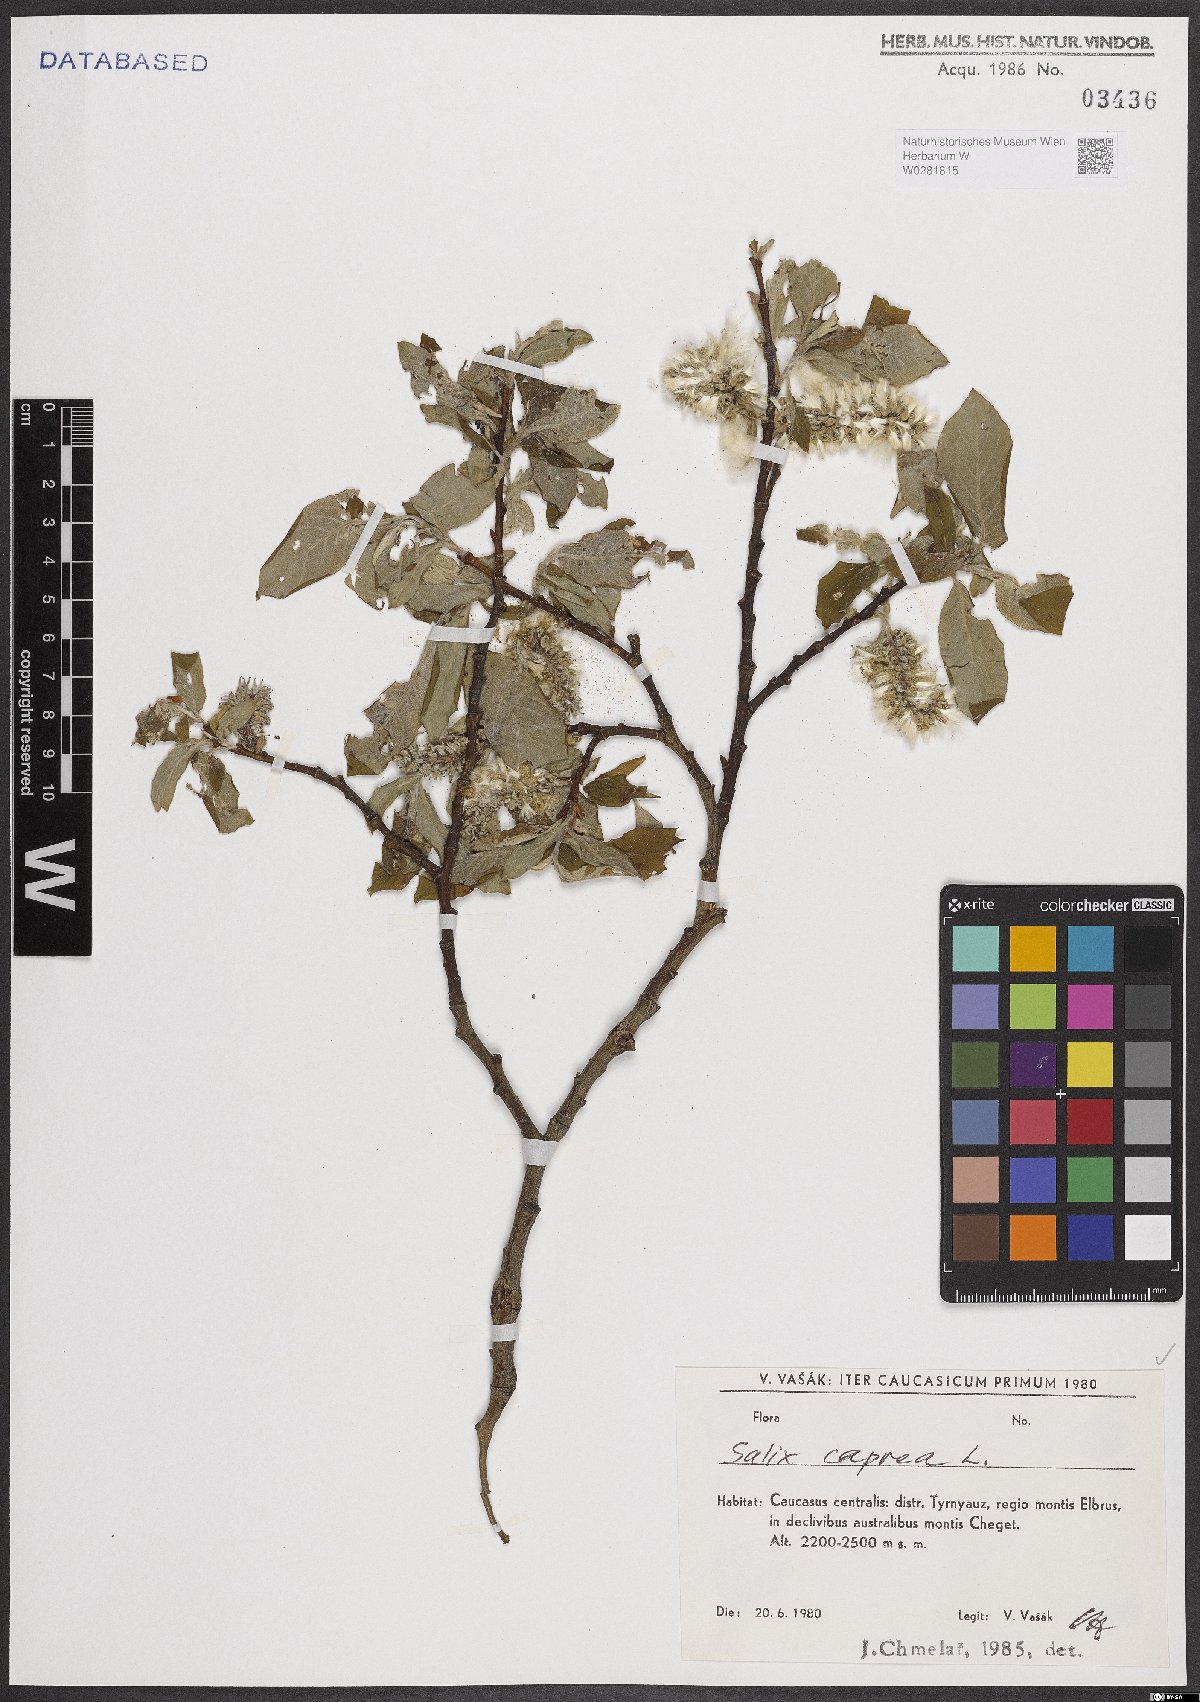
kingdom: Plantae
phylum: Tracheophyta
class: Magnoliopsida
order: Malpighiales
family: Salicaceae
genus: Salix
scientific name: Salix caprea
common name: Goat willow
